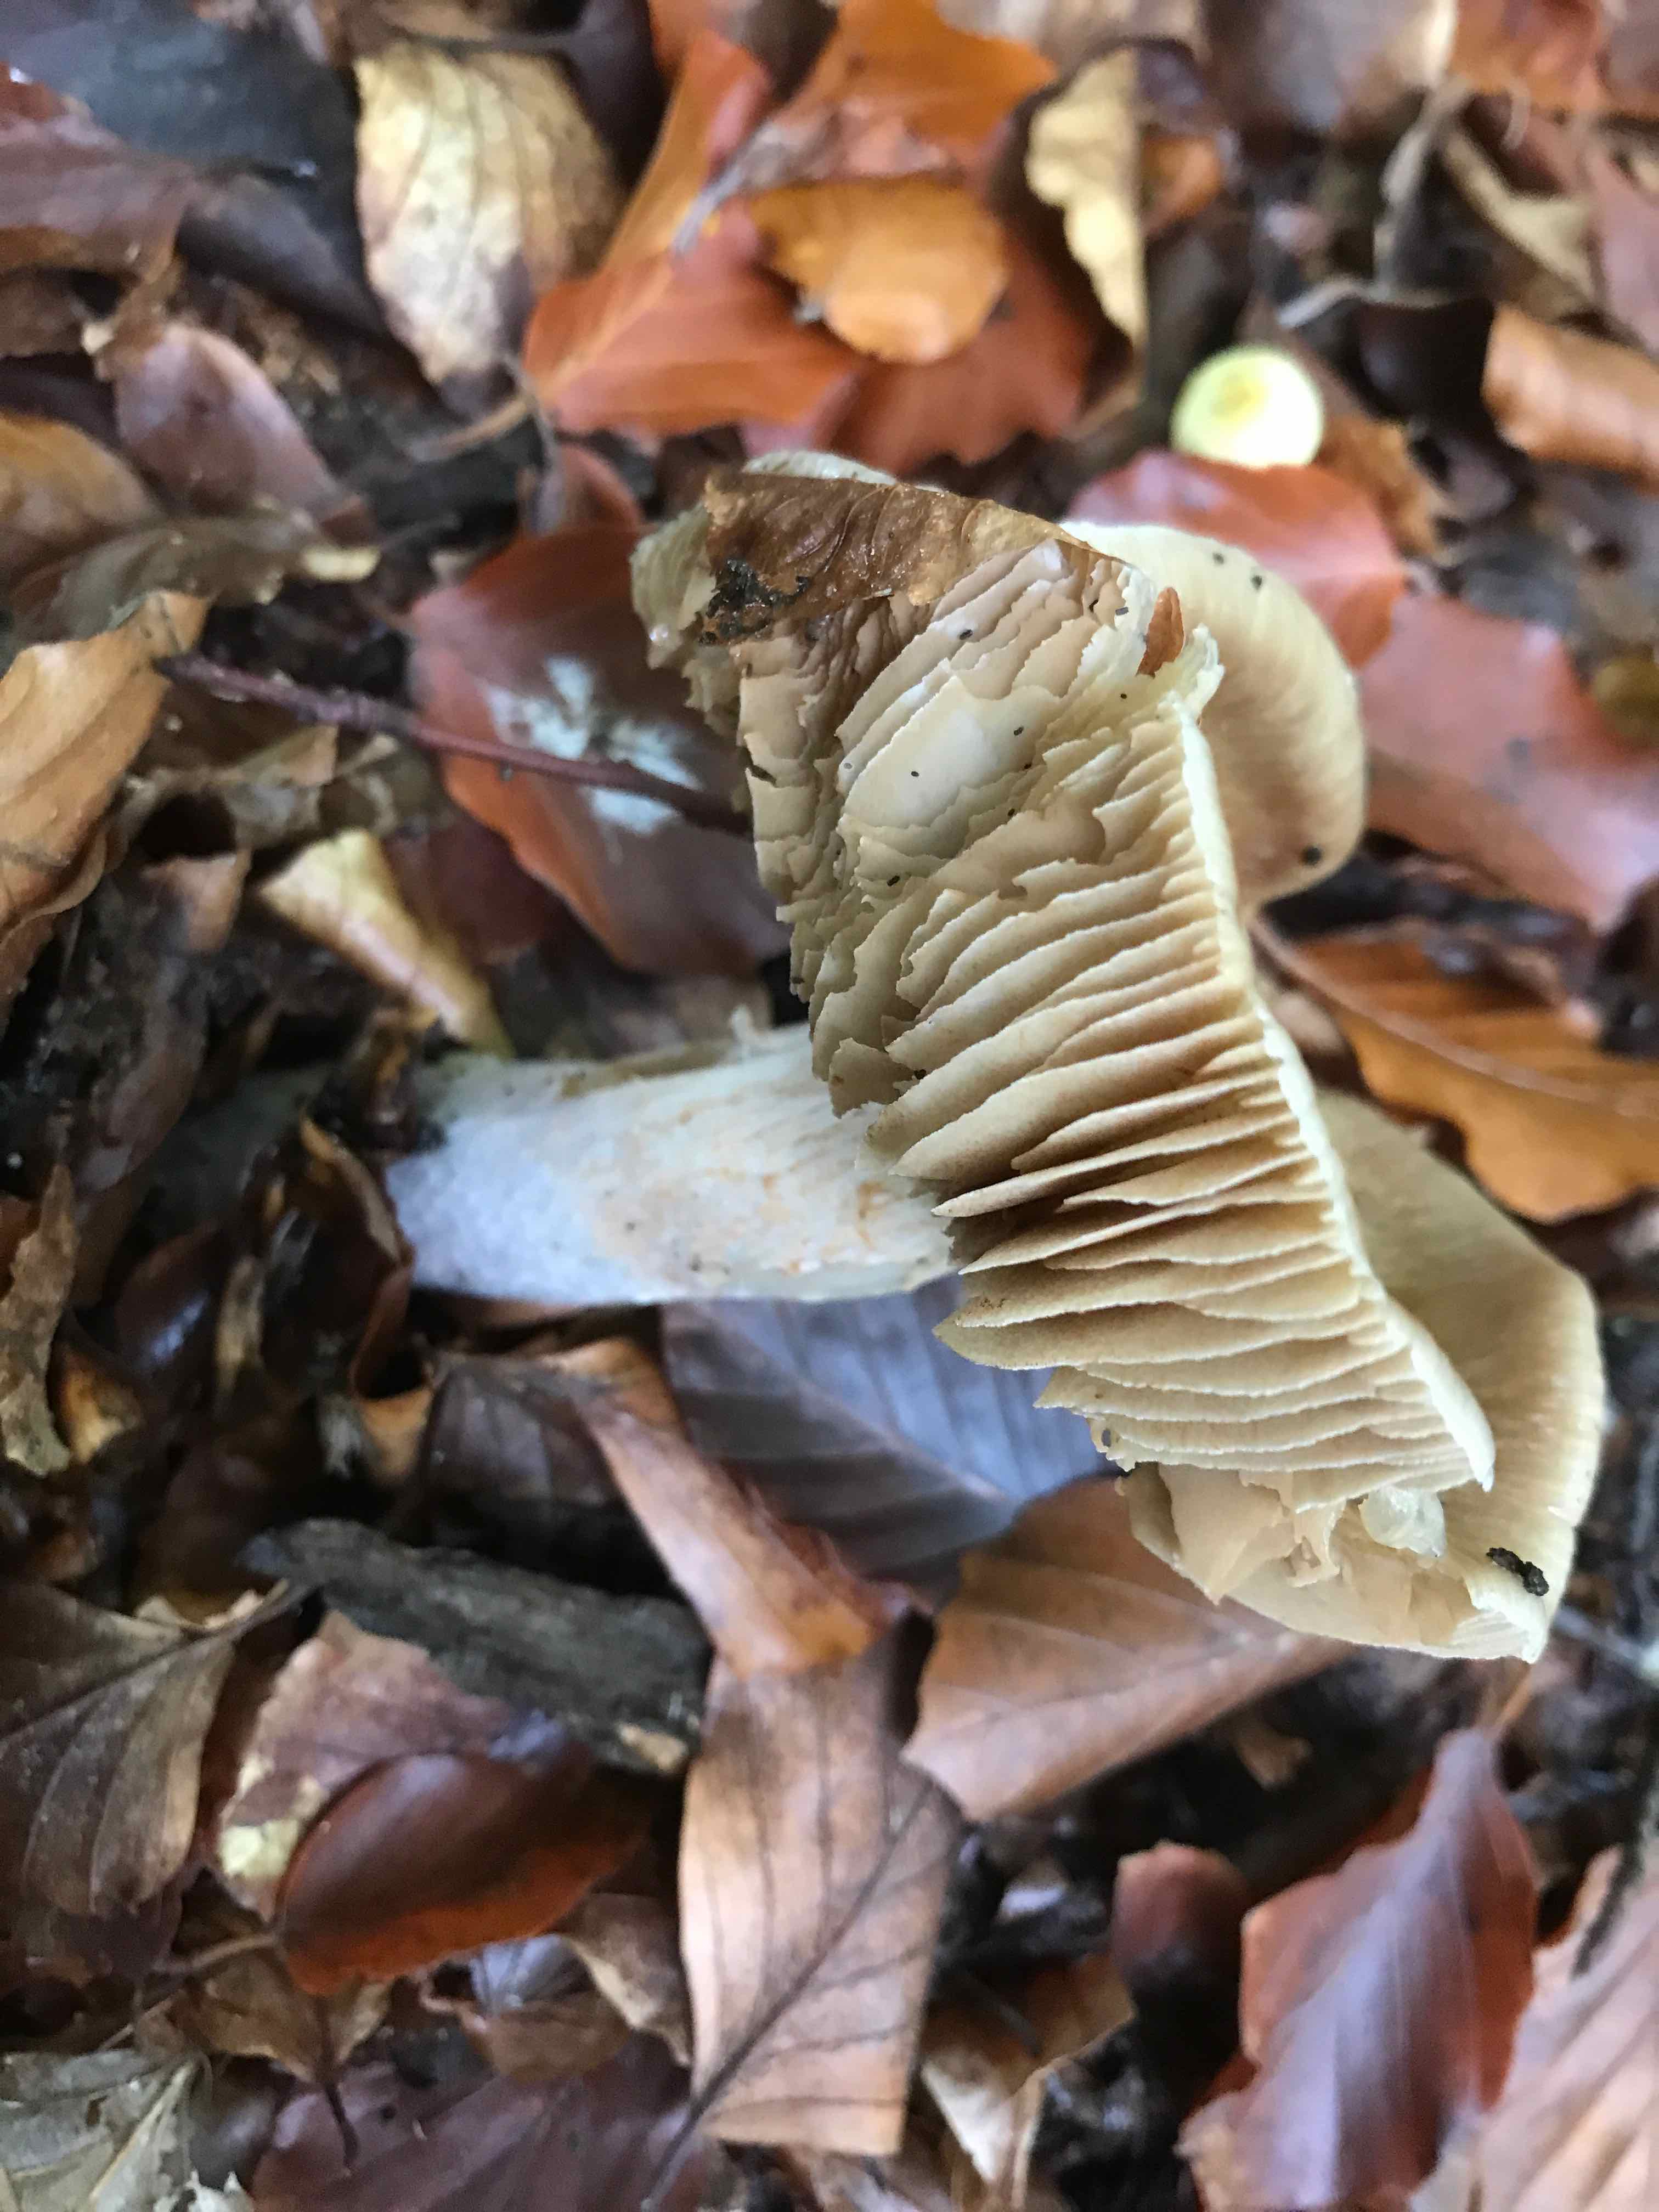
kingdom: Fungi
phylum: Basidiomycota
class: Agaricomycetes
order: Agaricales
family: Cortinariaceae
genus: Cortinarius
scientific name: Cortinarius elatior
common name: høj slørhat
